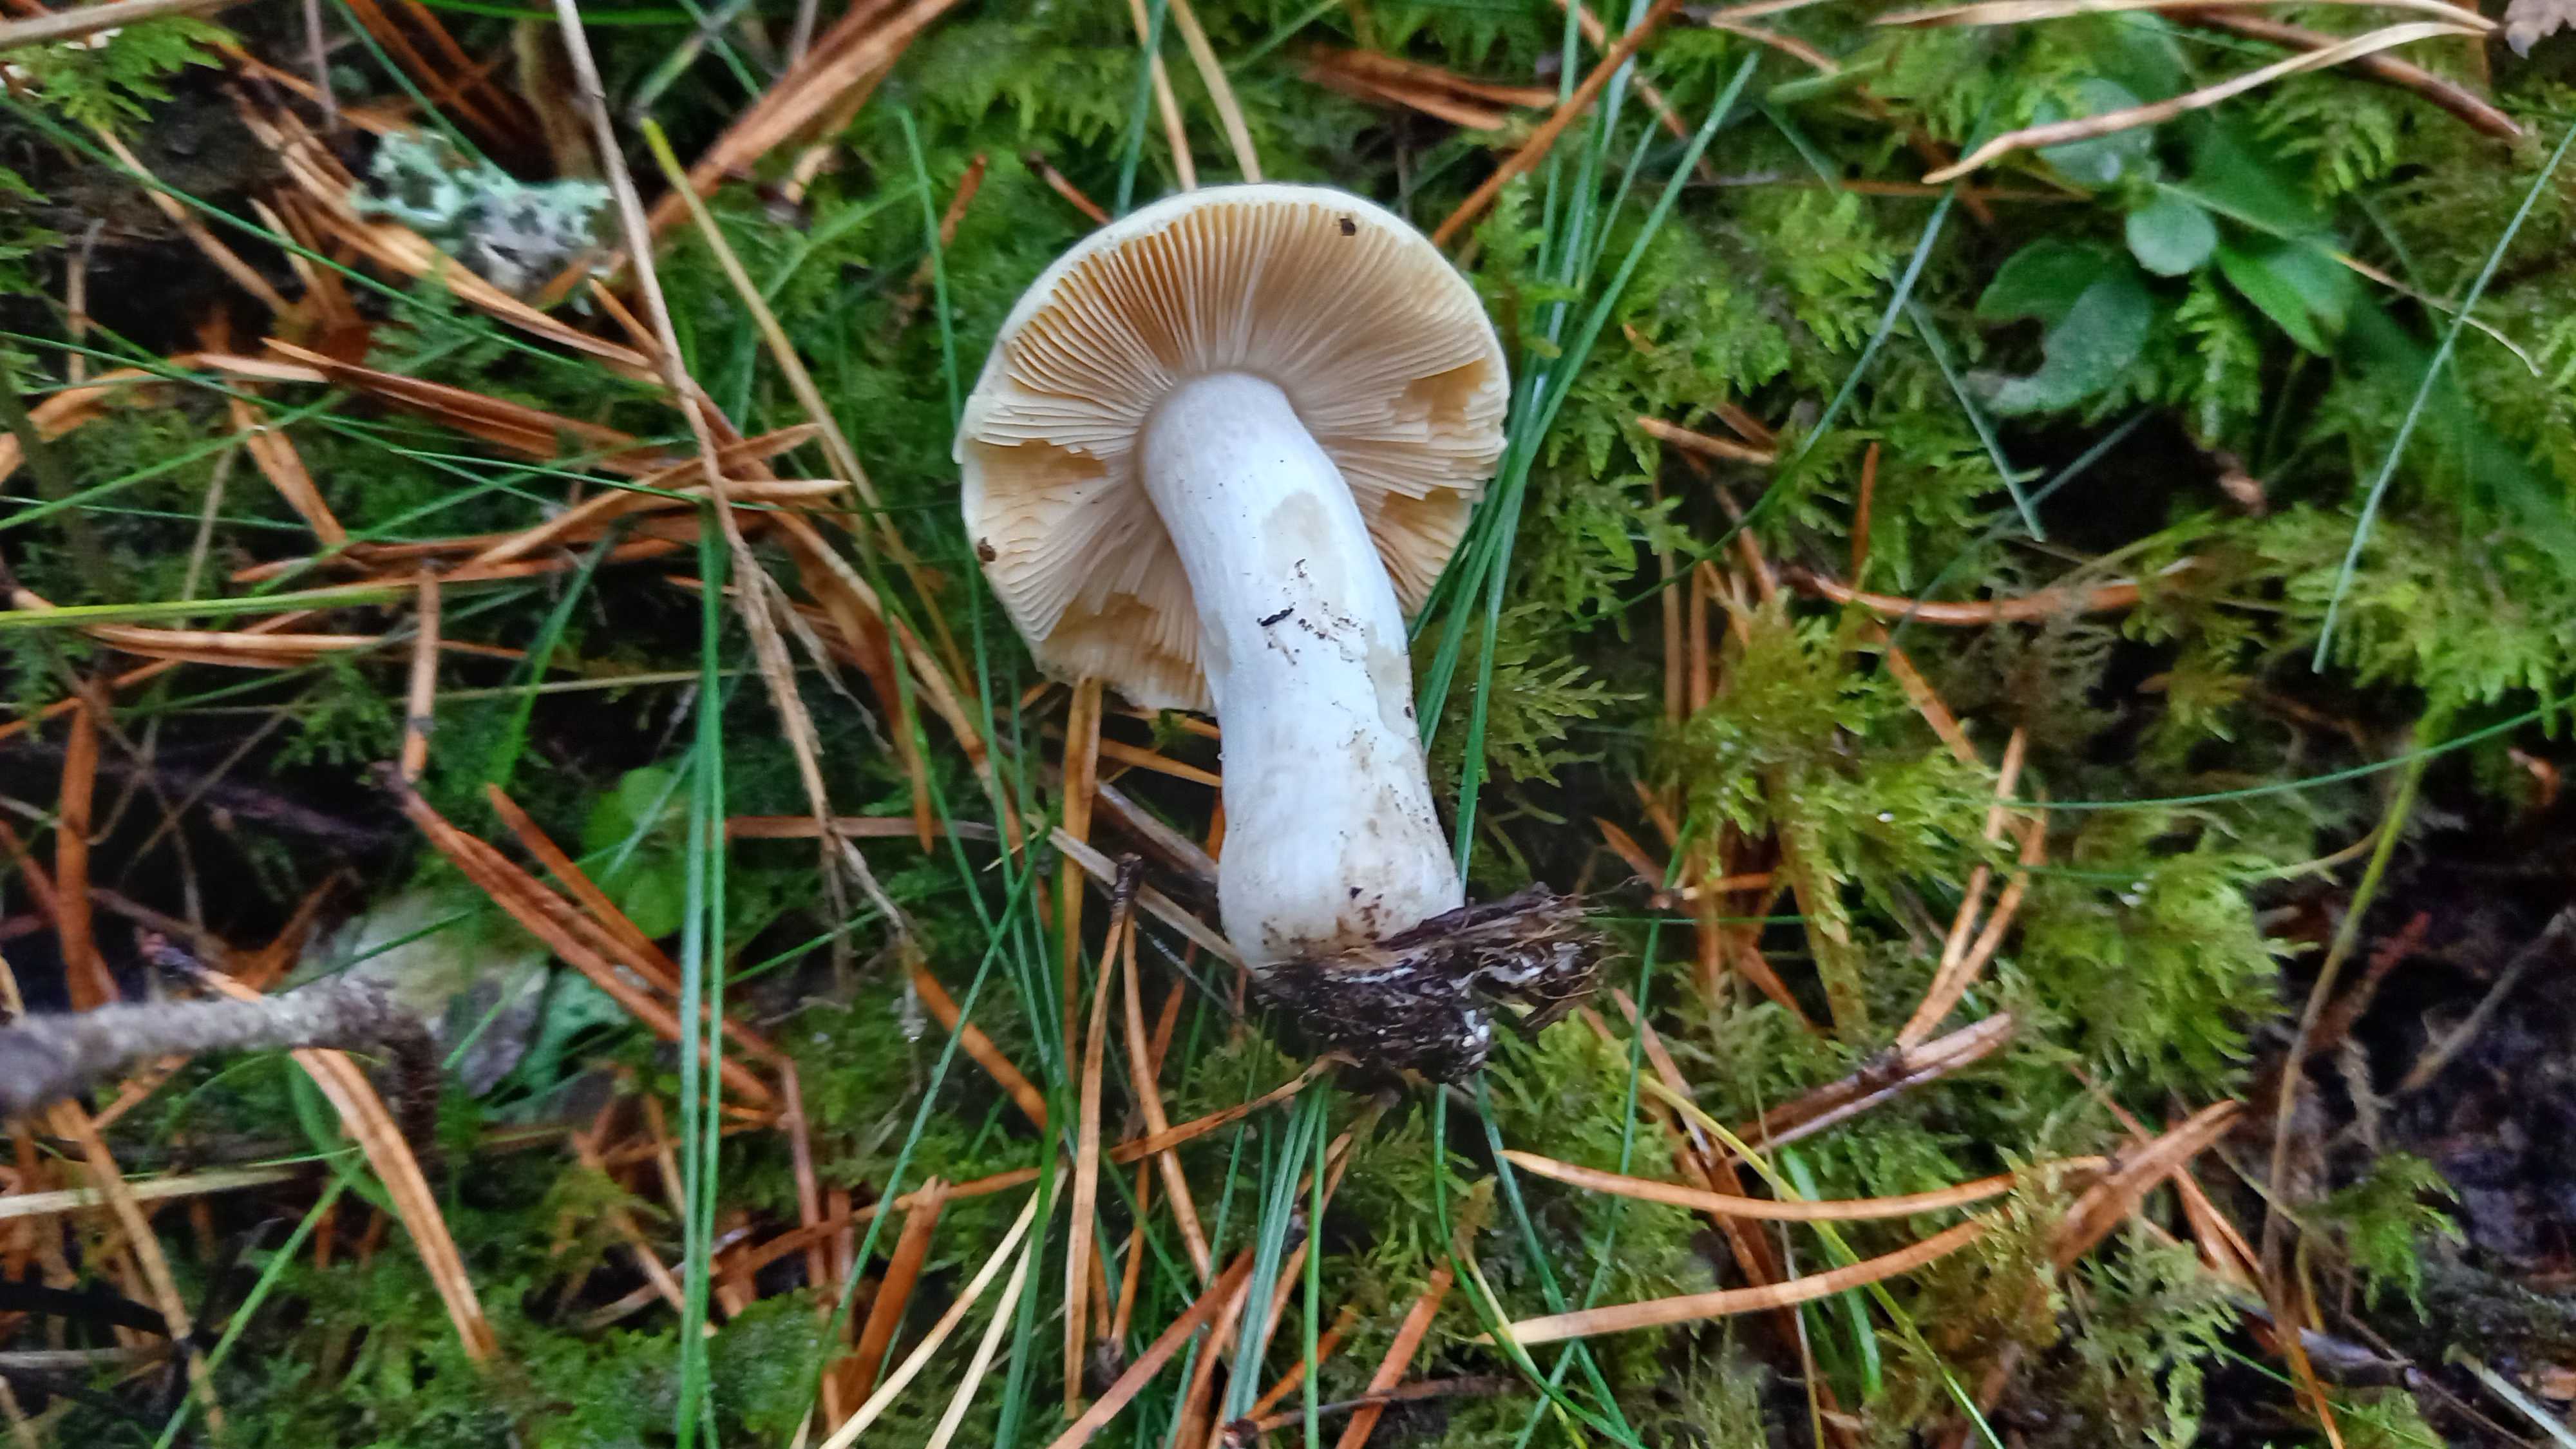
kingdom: Fungi
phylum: Basidiomycota
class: Agaricomycetes
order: Russulales
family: Russulaceae
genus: Russula
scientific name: Russula nauseosa
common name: spinkel skørhat
